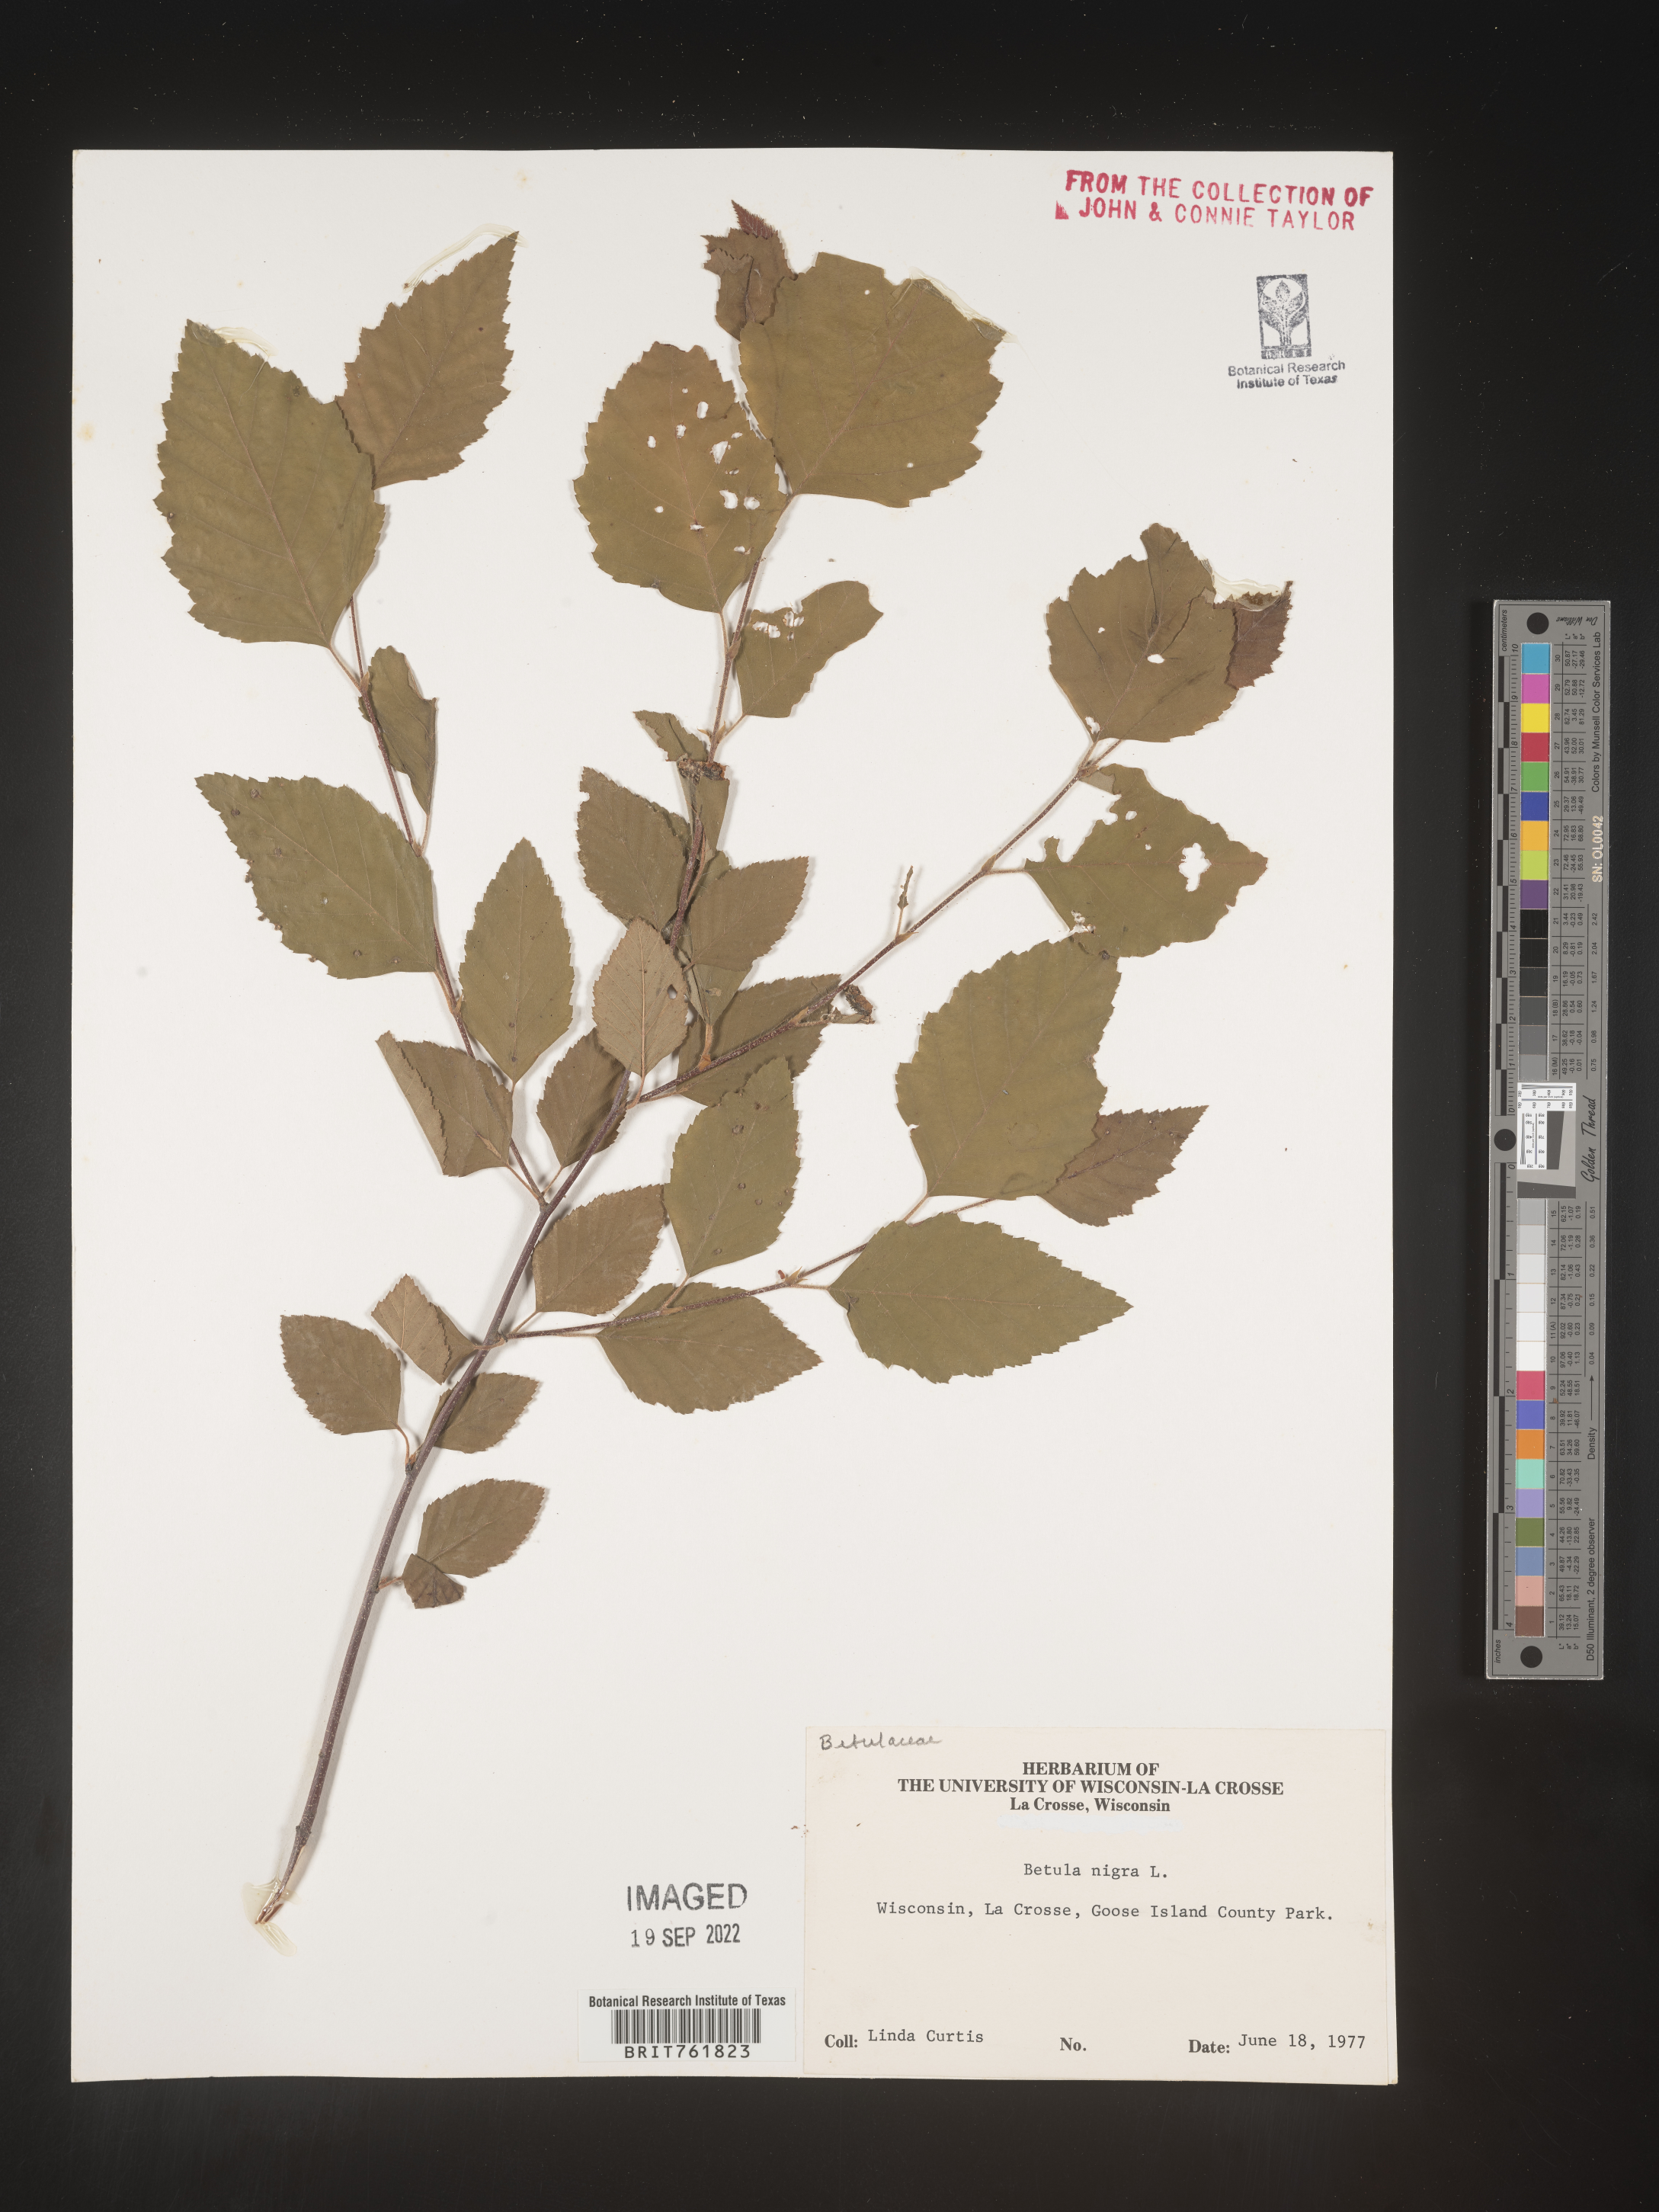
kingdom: Plantae
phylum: Tracheophyta
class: Magnoliopsida
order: Fagales
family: Betulaceae
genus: Betula
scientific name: Betula nigra
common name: Black birch
